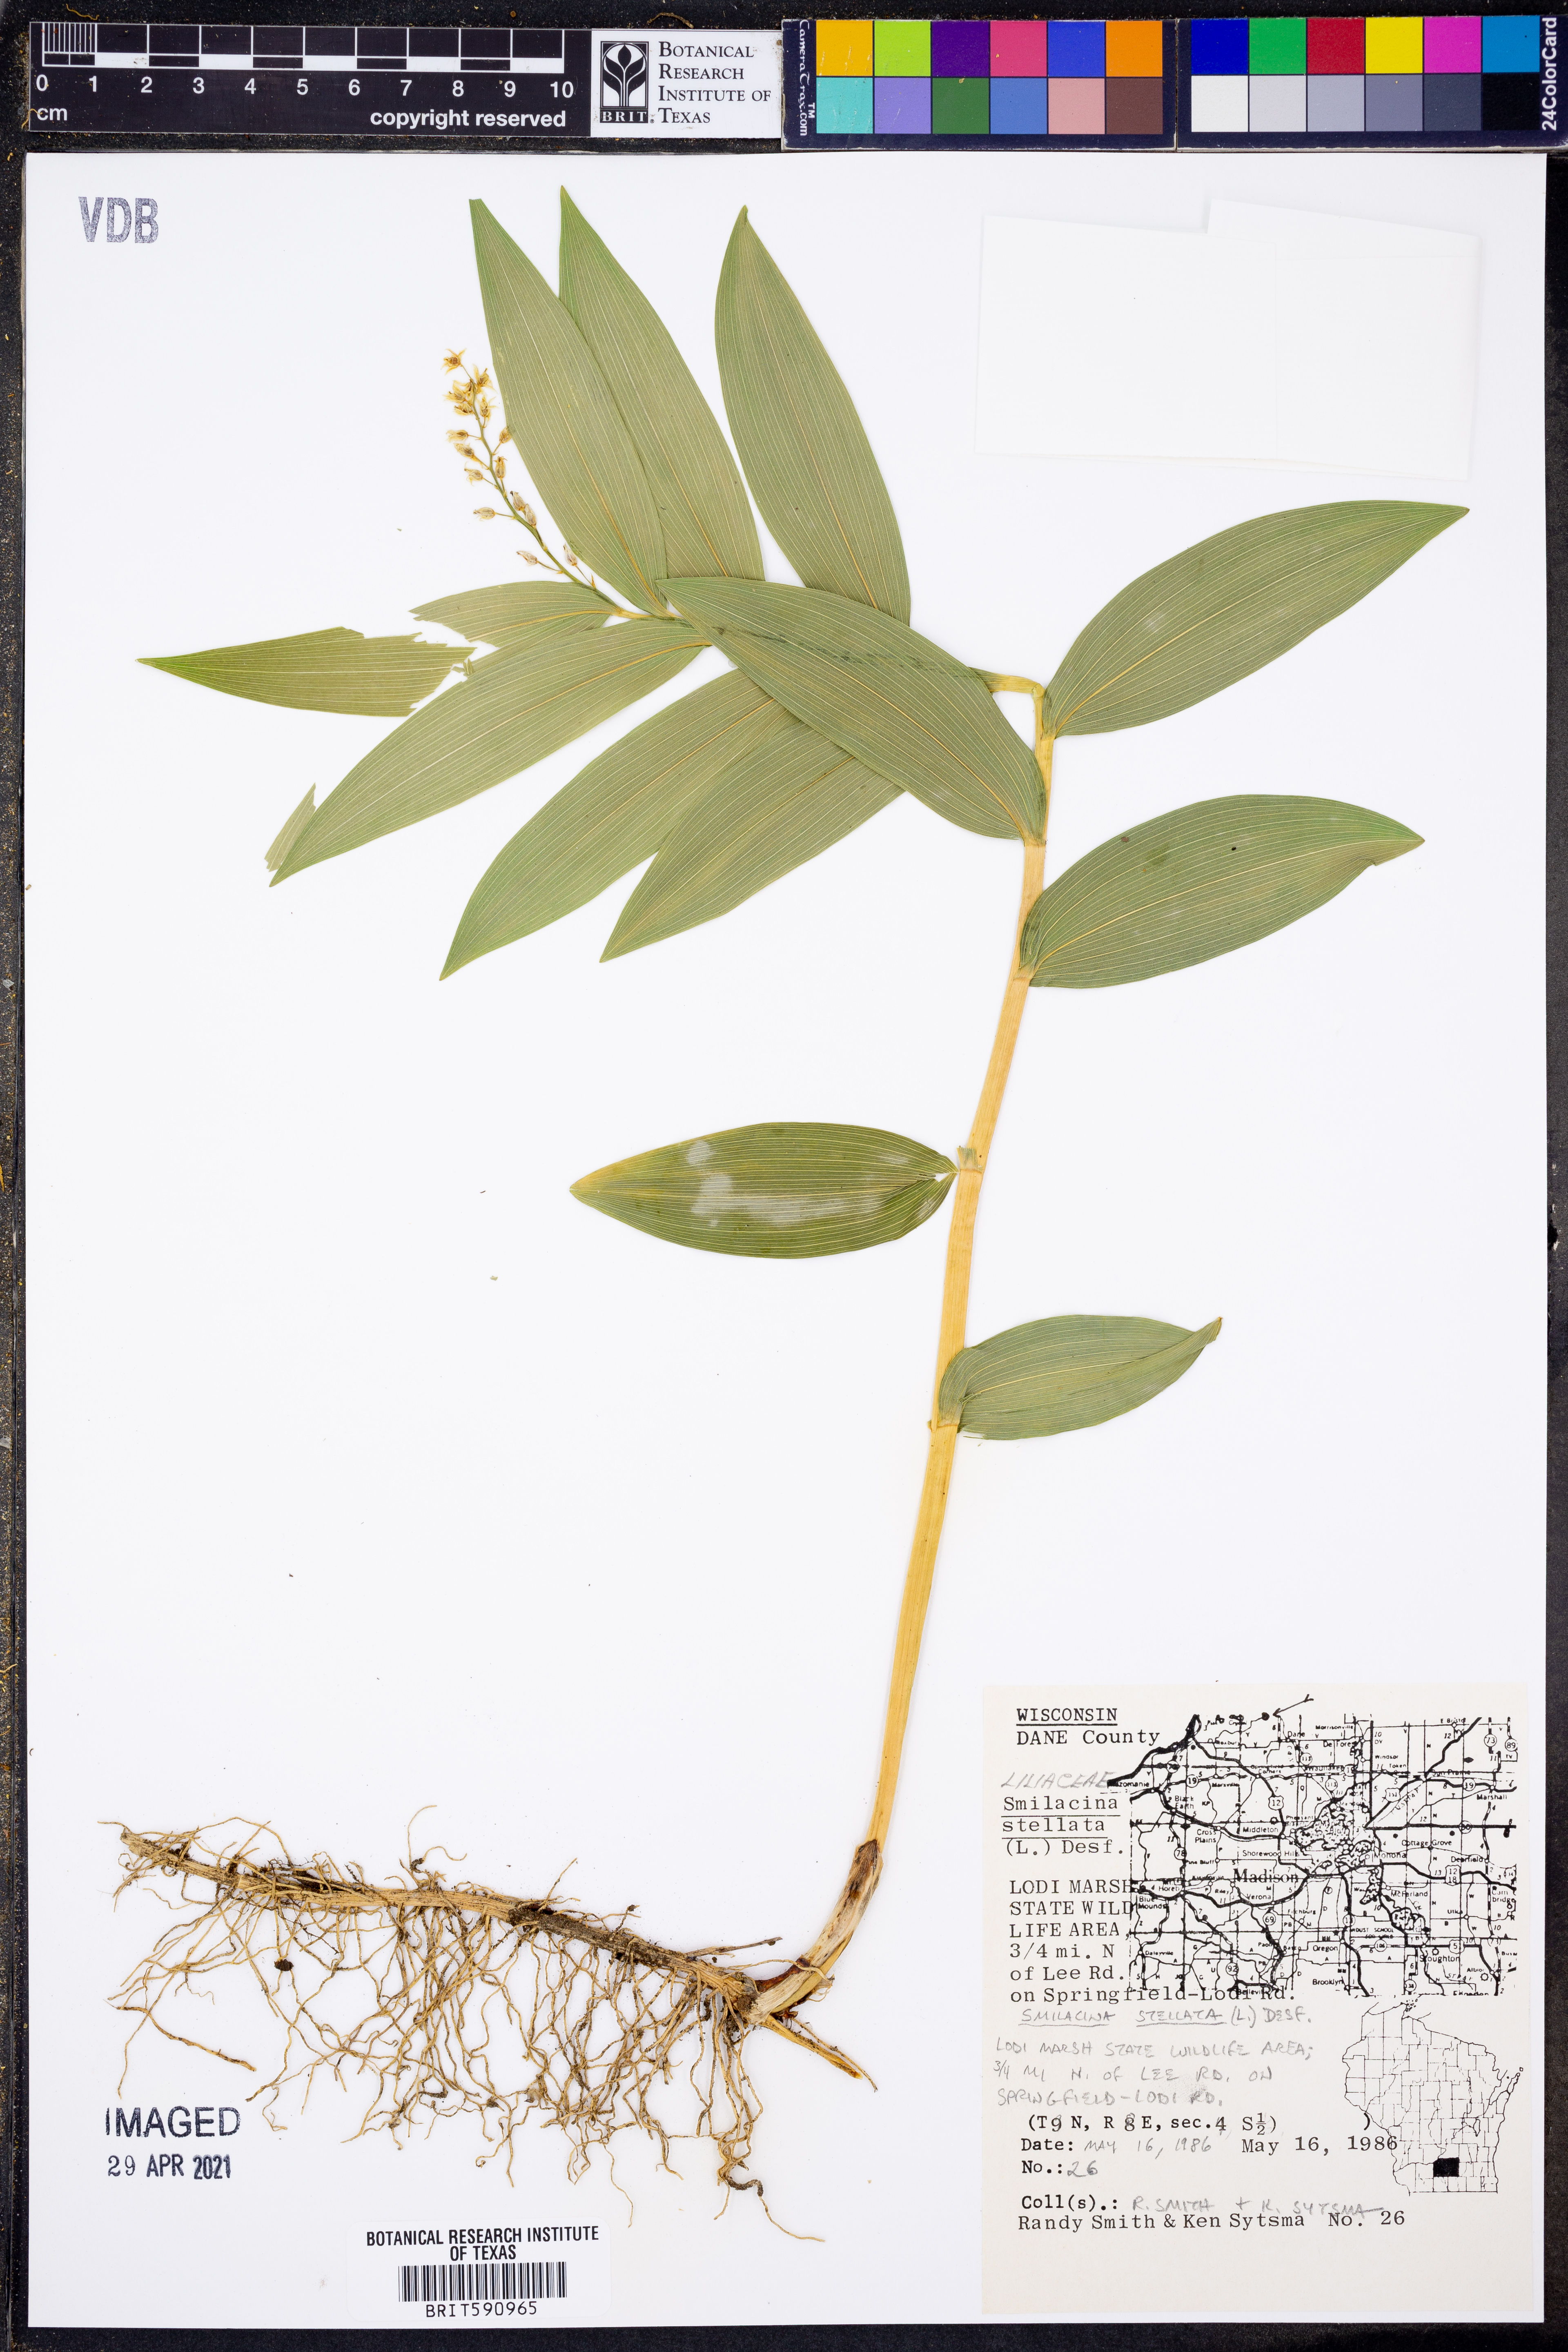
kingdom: Plantae
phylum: Tracheophyta
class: Liliopsida
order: Asparagales
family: Asparagaceae
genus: Maianthemum
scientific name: Maianthemum stellatum
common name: Little false solomon's seal
